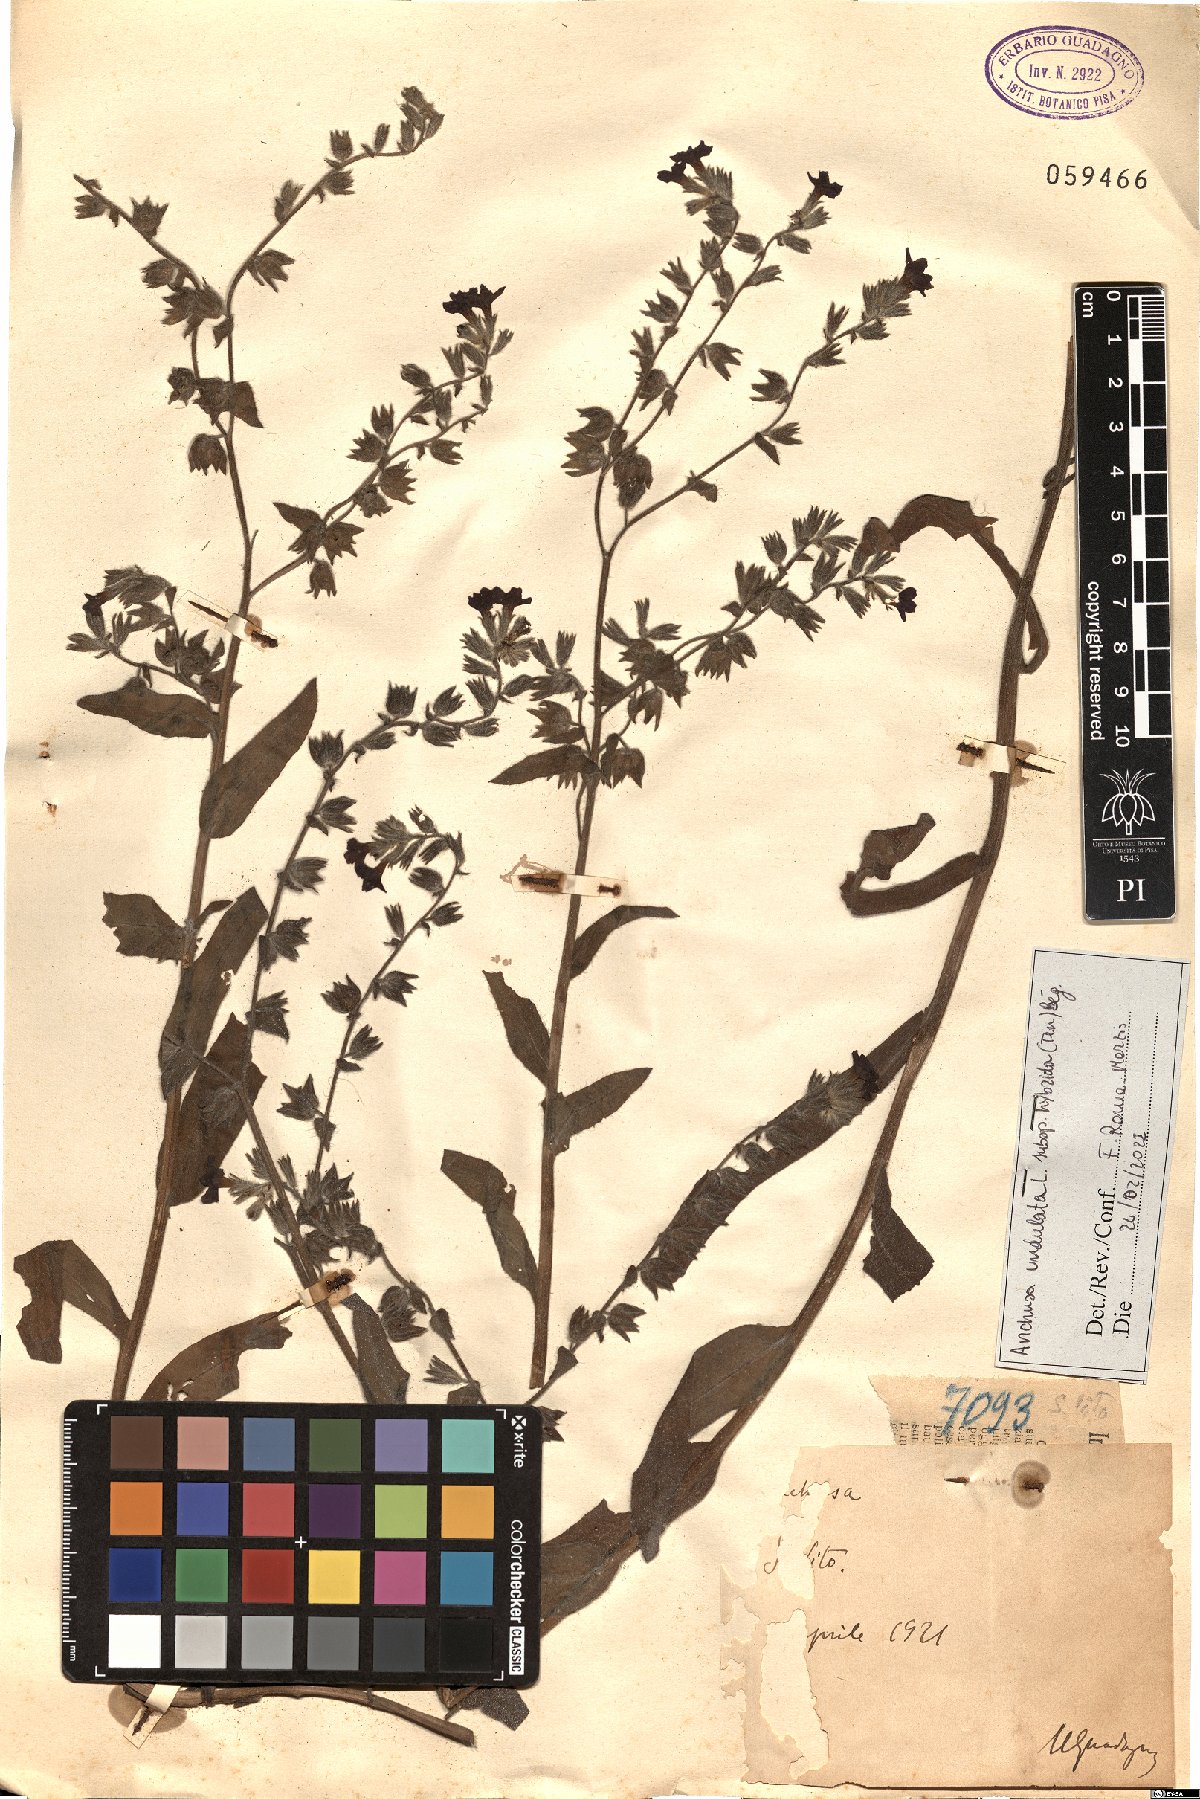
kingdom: Plantae
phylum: Tracheophyta
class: Magnoliopsida
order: Boraginales
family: Boraginaceae
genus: Anchusa
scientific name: Anchusa undulata
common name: Undulate alkanet
